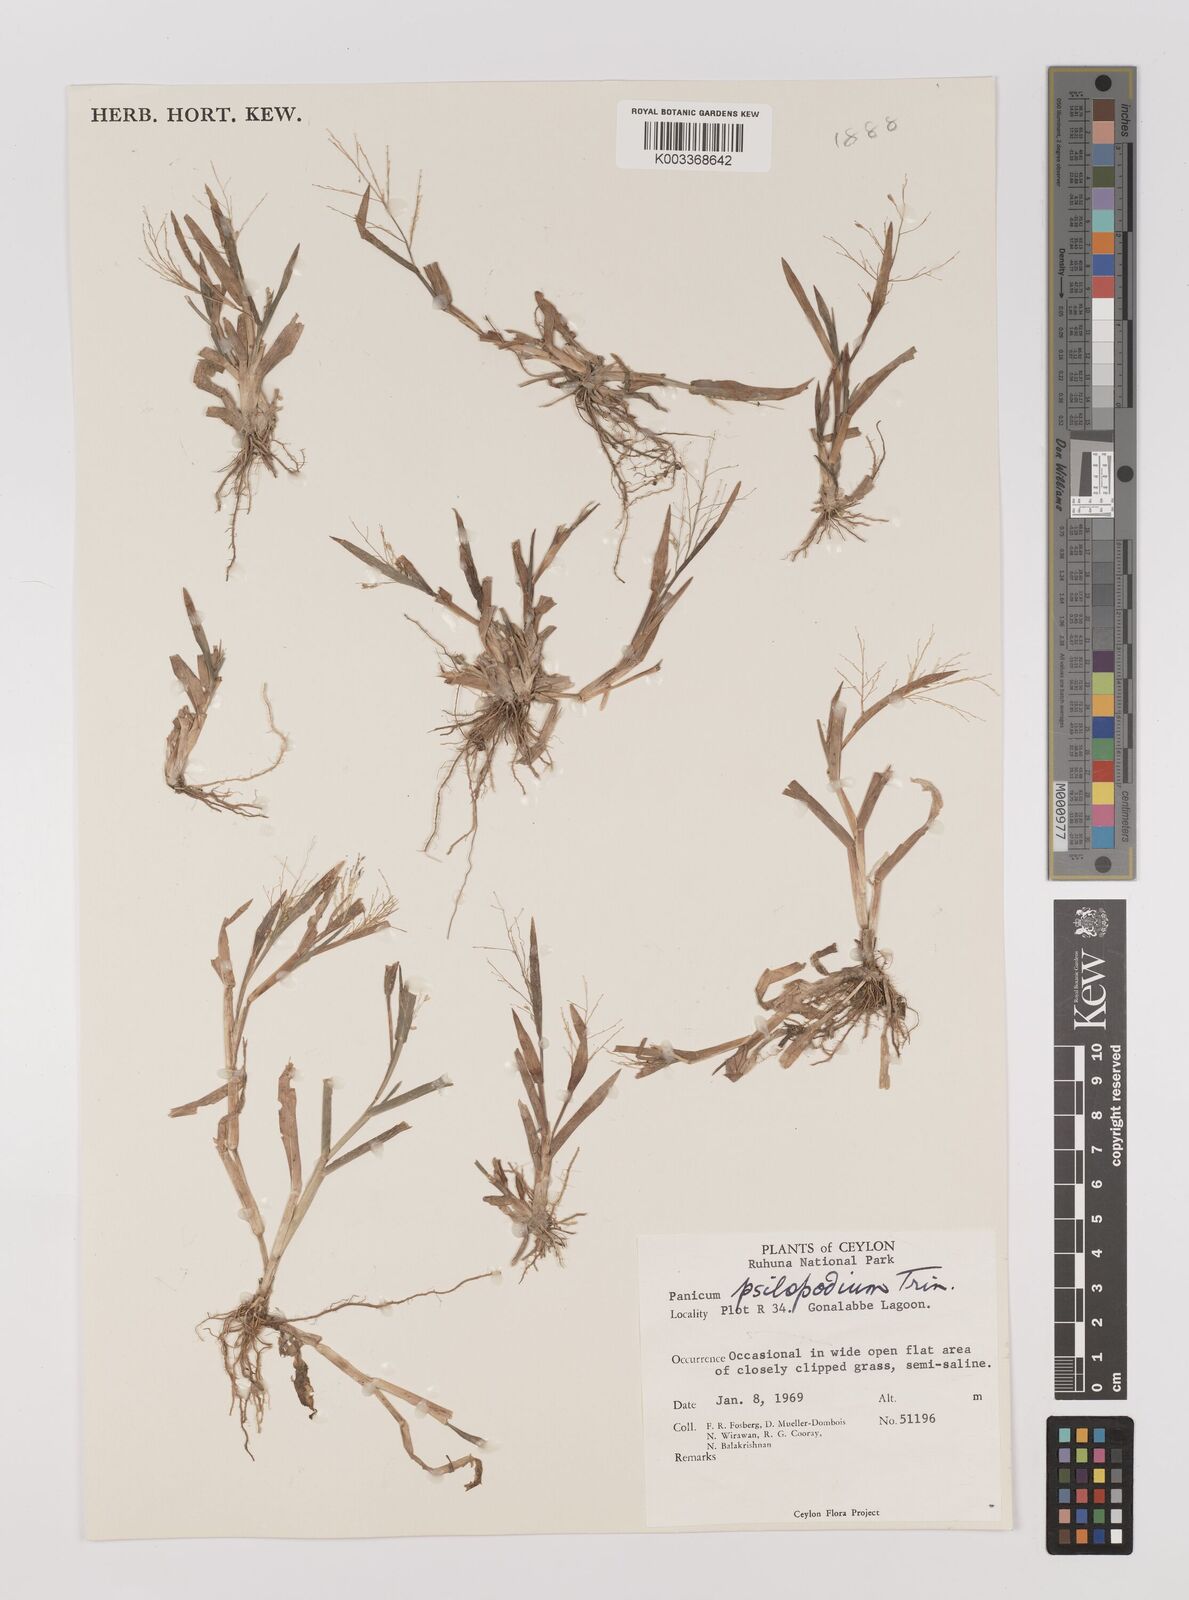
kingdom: Plantae
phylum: Tracheophyta
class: Liliopsida
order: Poales
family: Poaceae
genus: Panicum
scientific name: Panicum sumatrense
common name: Little millet
